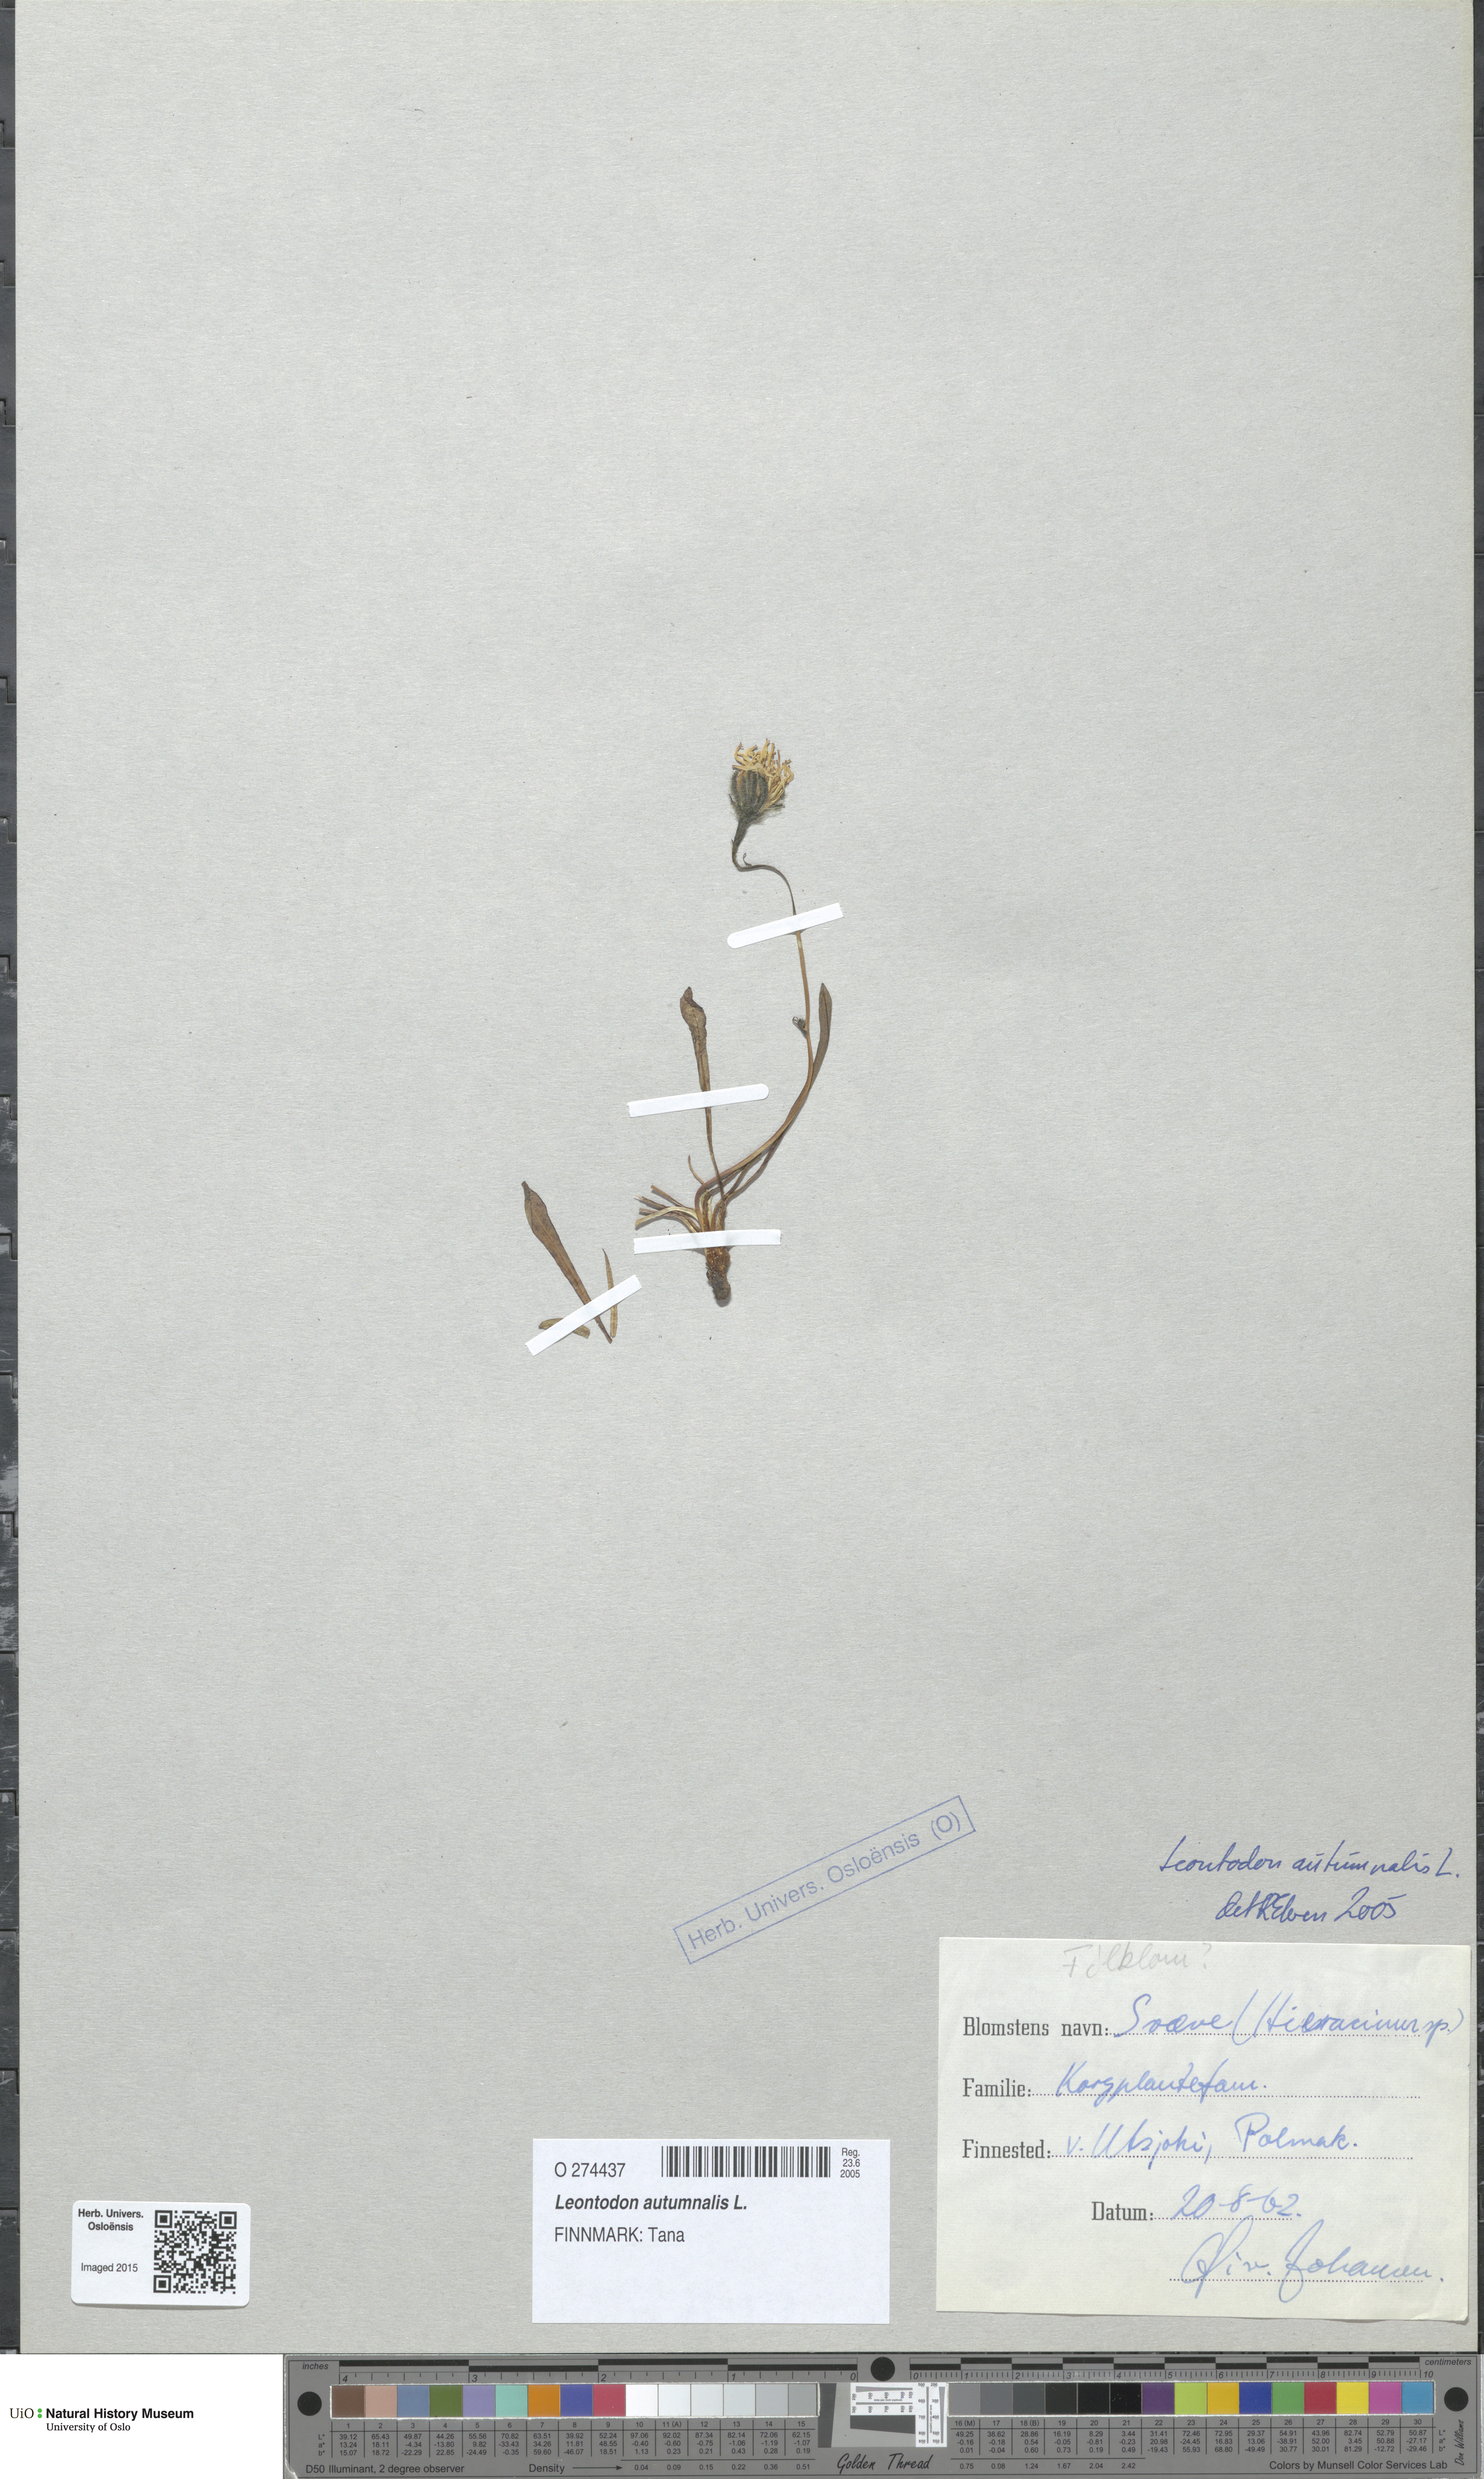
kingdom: Plantae
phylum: Tracheophyta
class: Magnoliopsida
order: Asterales
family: Asteraceae
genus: Scorzoneroides
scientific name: Scorzoneroides autumnalis
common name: Autumn hawkbit
